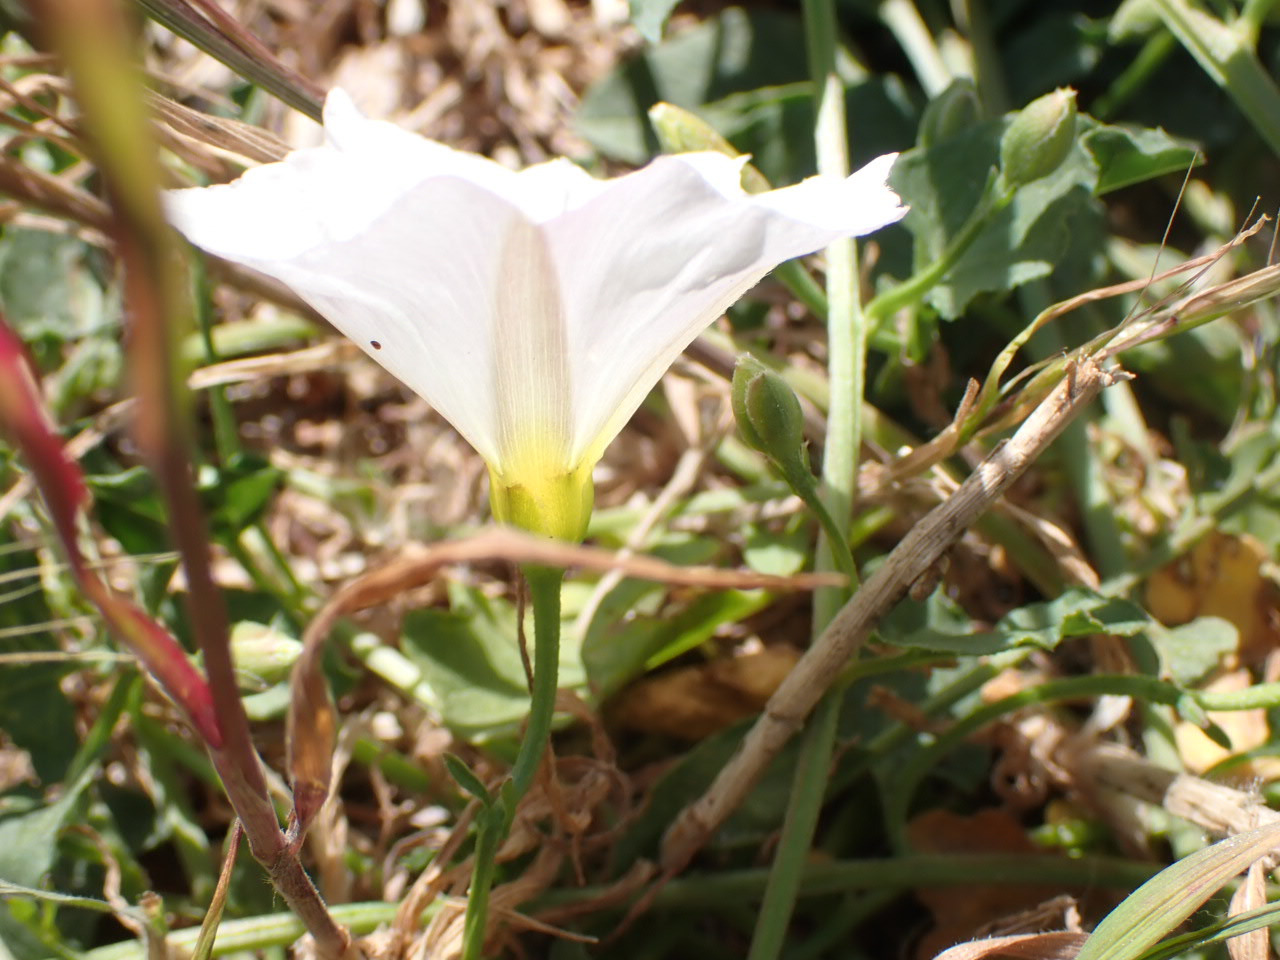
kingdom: Plantae
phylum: Tracheophyta
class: Magnoliopsida
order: Solanales
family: Convolvulaceae
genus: Convolvulus
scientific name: Convolvulus arvensis
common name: Ager-snerle
